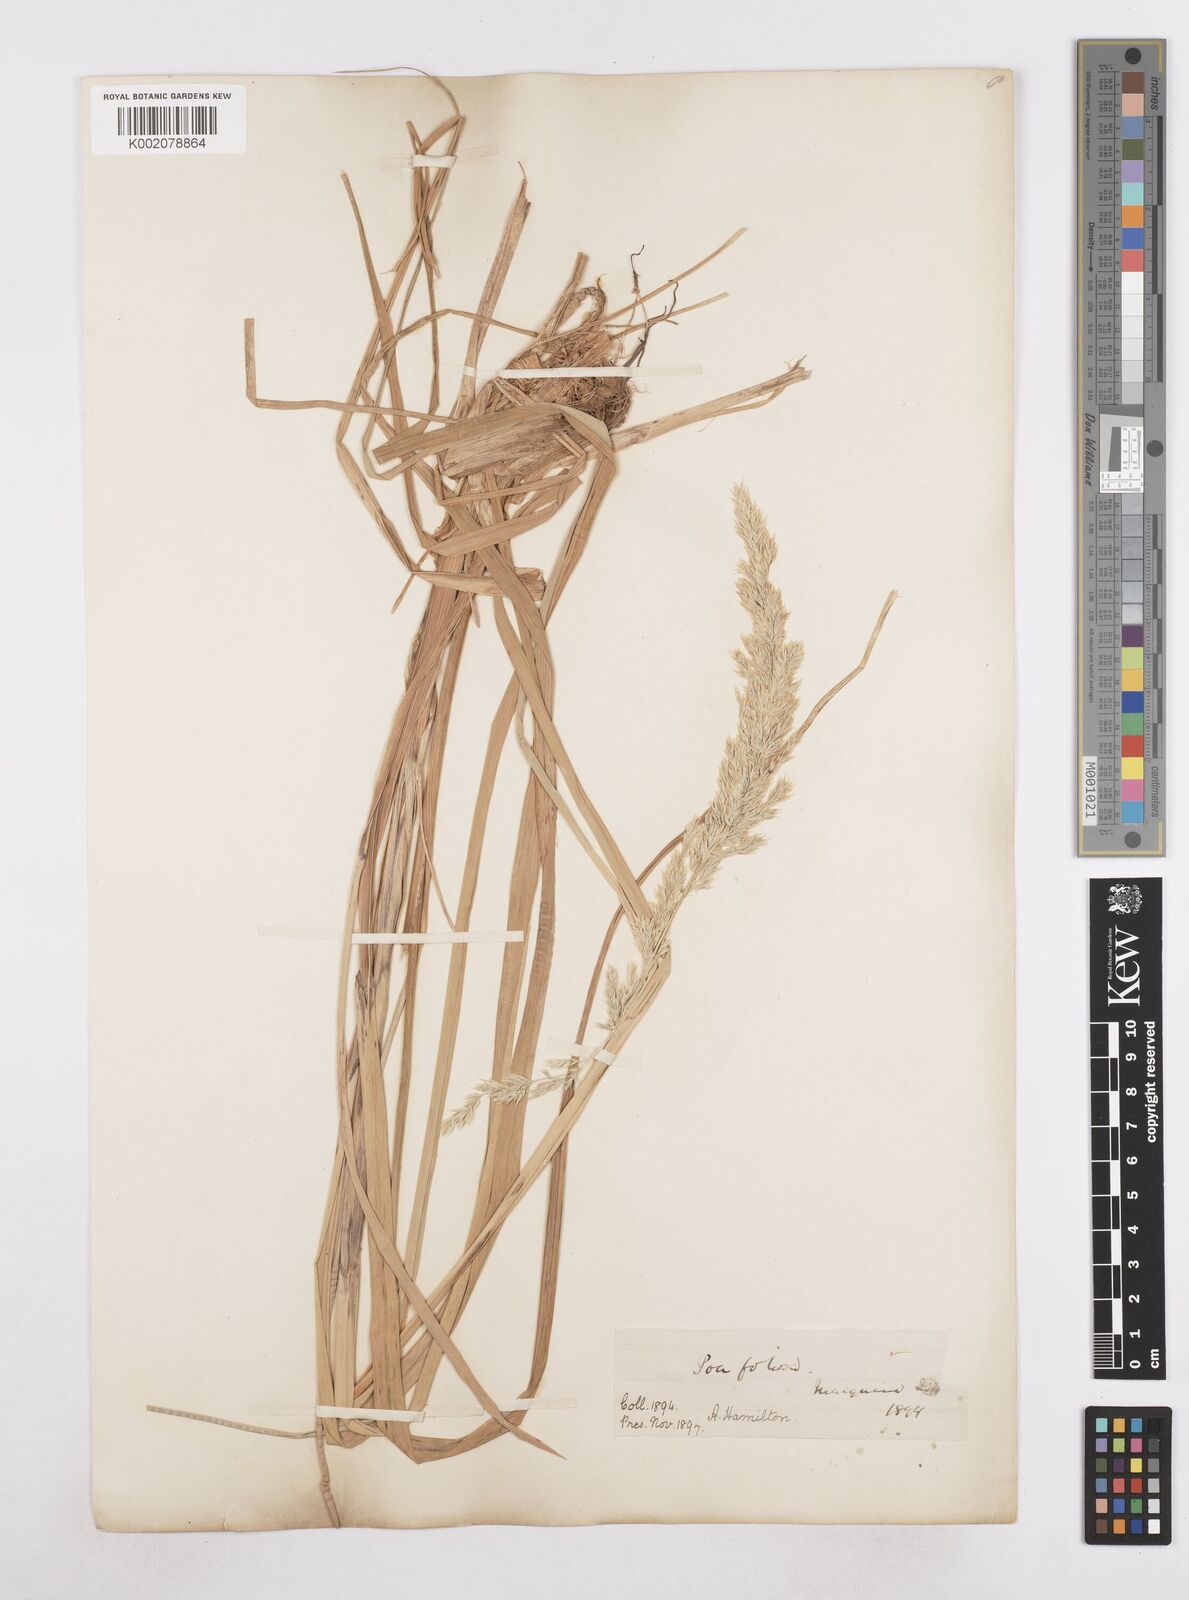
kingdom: Plantae
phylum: Tracheophyta
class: Liliopsida
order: Poales
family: Poaceae
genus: Poa
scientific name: Poa foliosa
